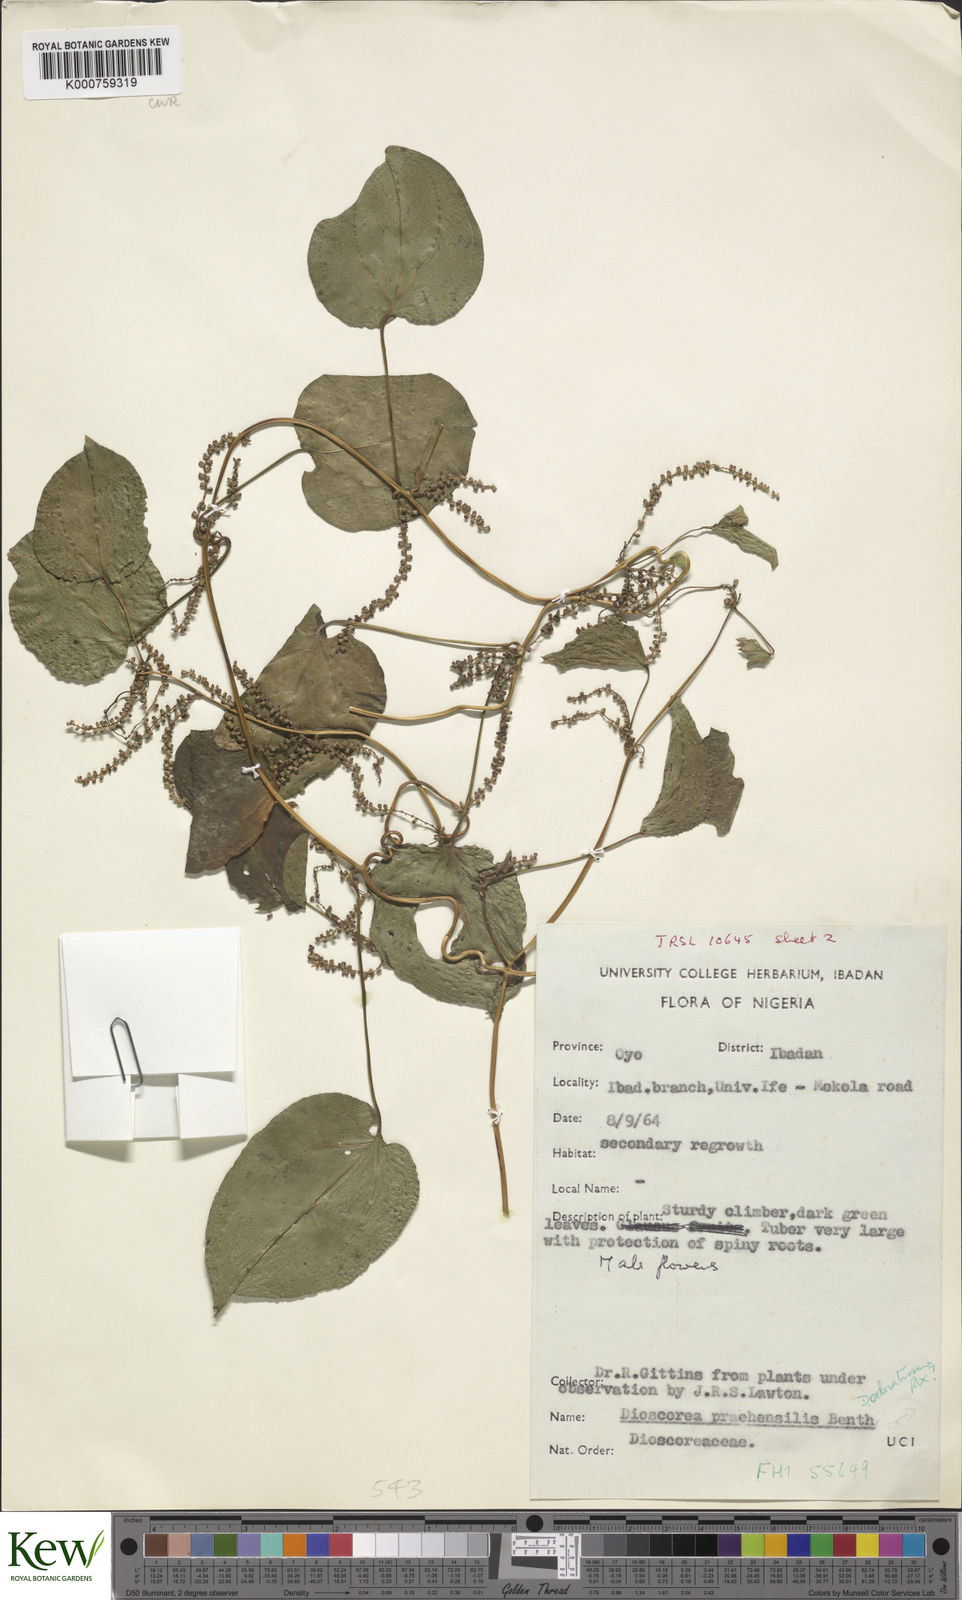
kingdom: Plantae
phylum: Tracheophyta
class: Liliopsida
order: Dioscoreales
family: Dioscoreaceae
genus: Dioscorea
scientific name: Dioscorea praehensilis
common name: Bush yam
